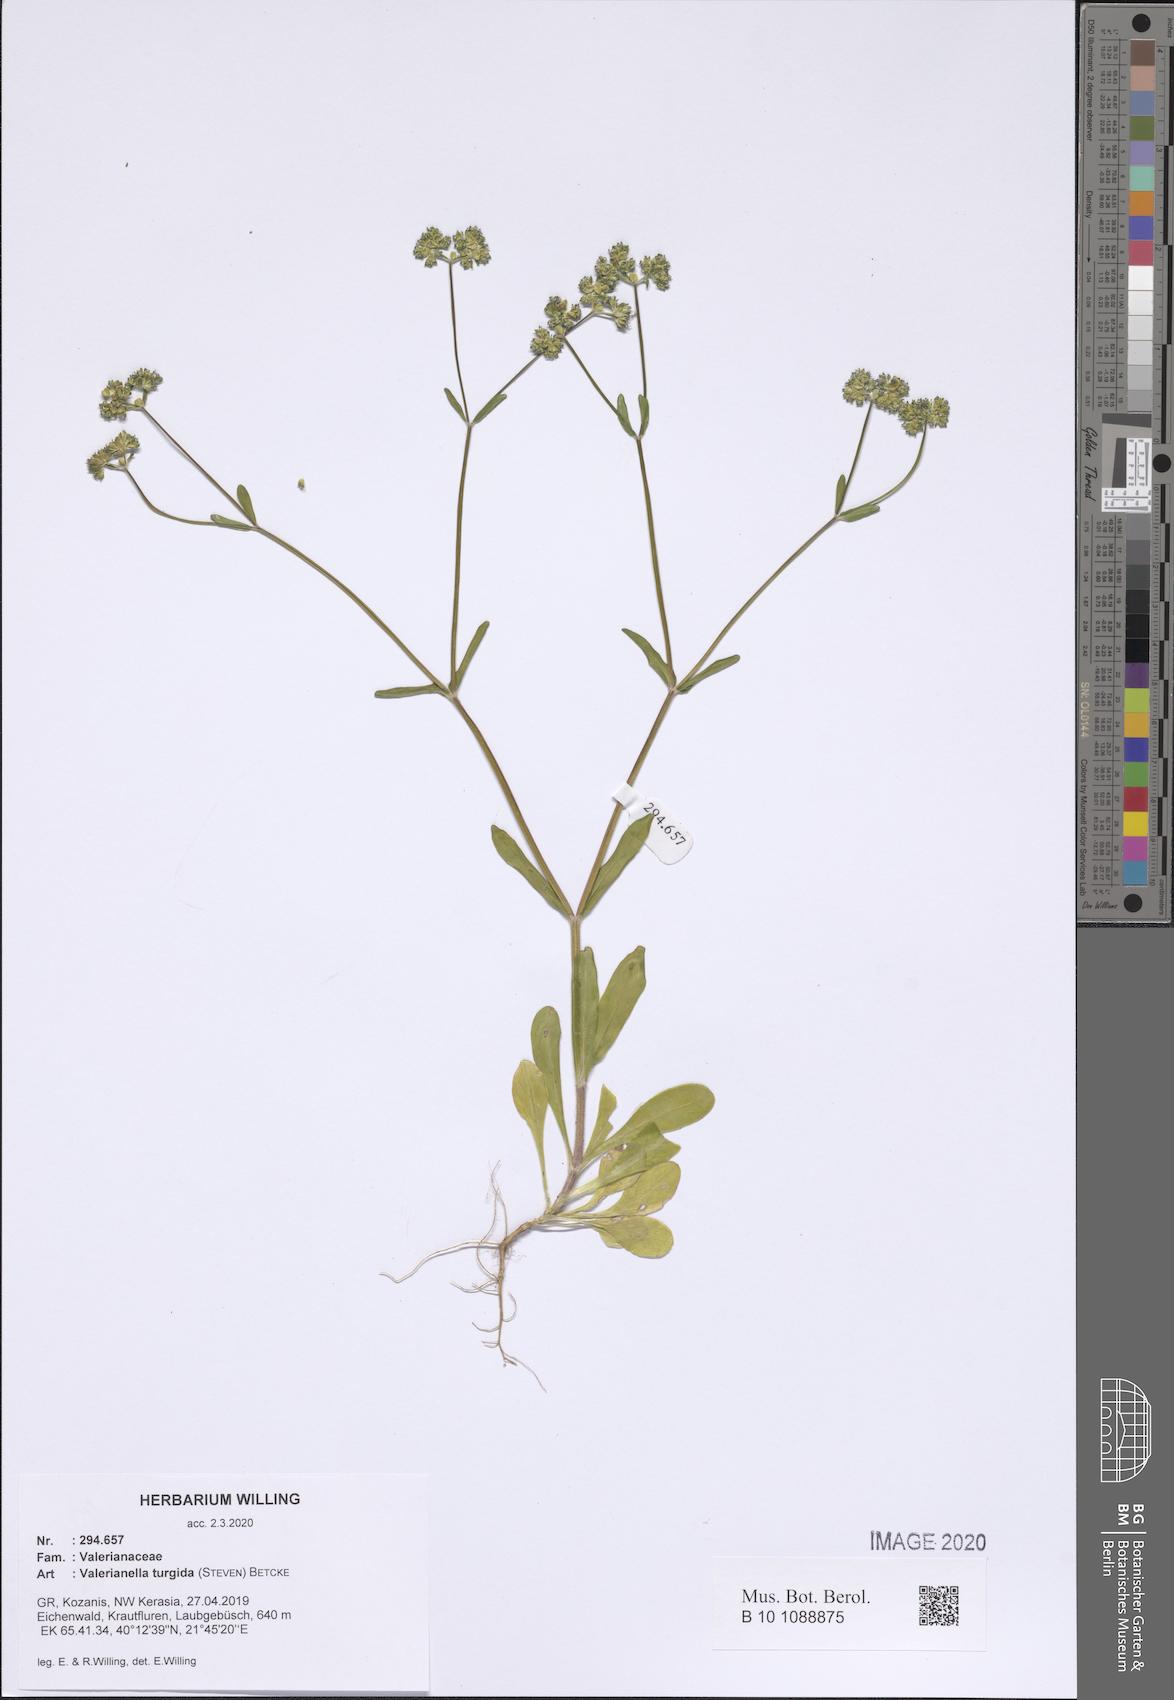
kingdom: Plantae
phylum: Tracheophyta
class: Magnoliopsida
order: Dipsacales
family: Caprifoliaceae
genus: Valerianella
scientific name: Valerianella turgida
